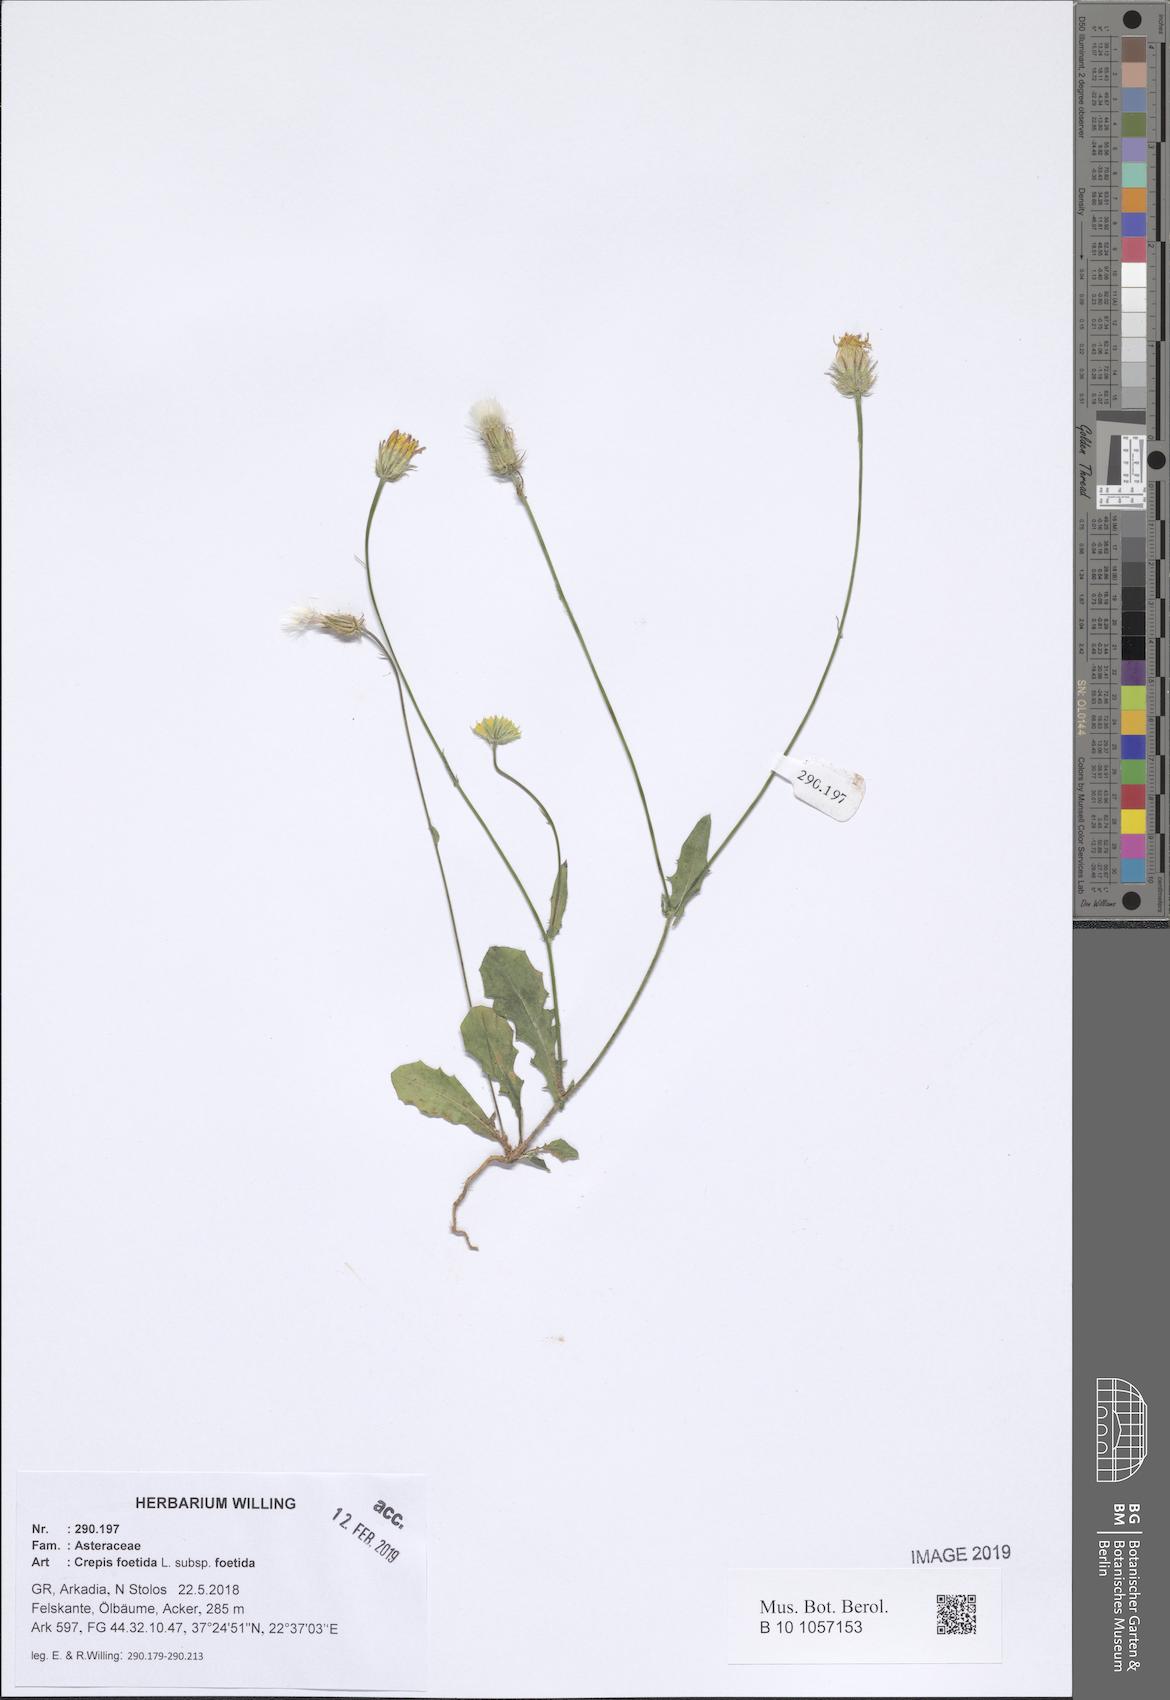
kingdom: Plantae
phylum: Tracheophyta
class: Magnoliopsida
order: Asterales
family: Asteraceae
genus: Crepis
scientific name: Crepis foetida
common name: Stinking hawk's-beard
